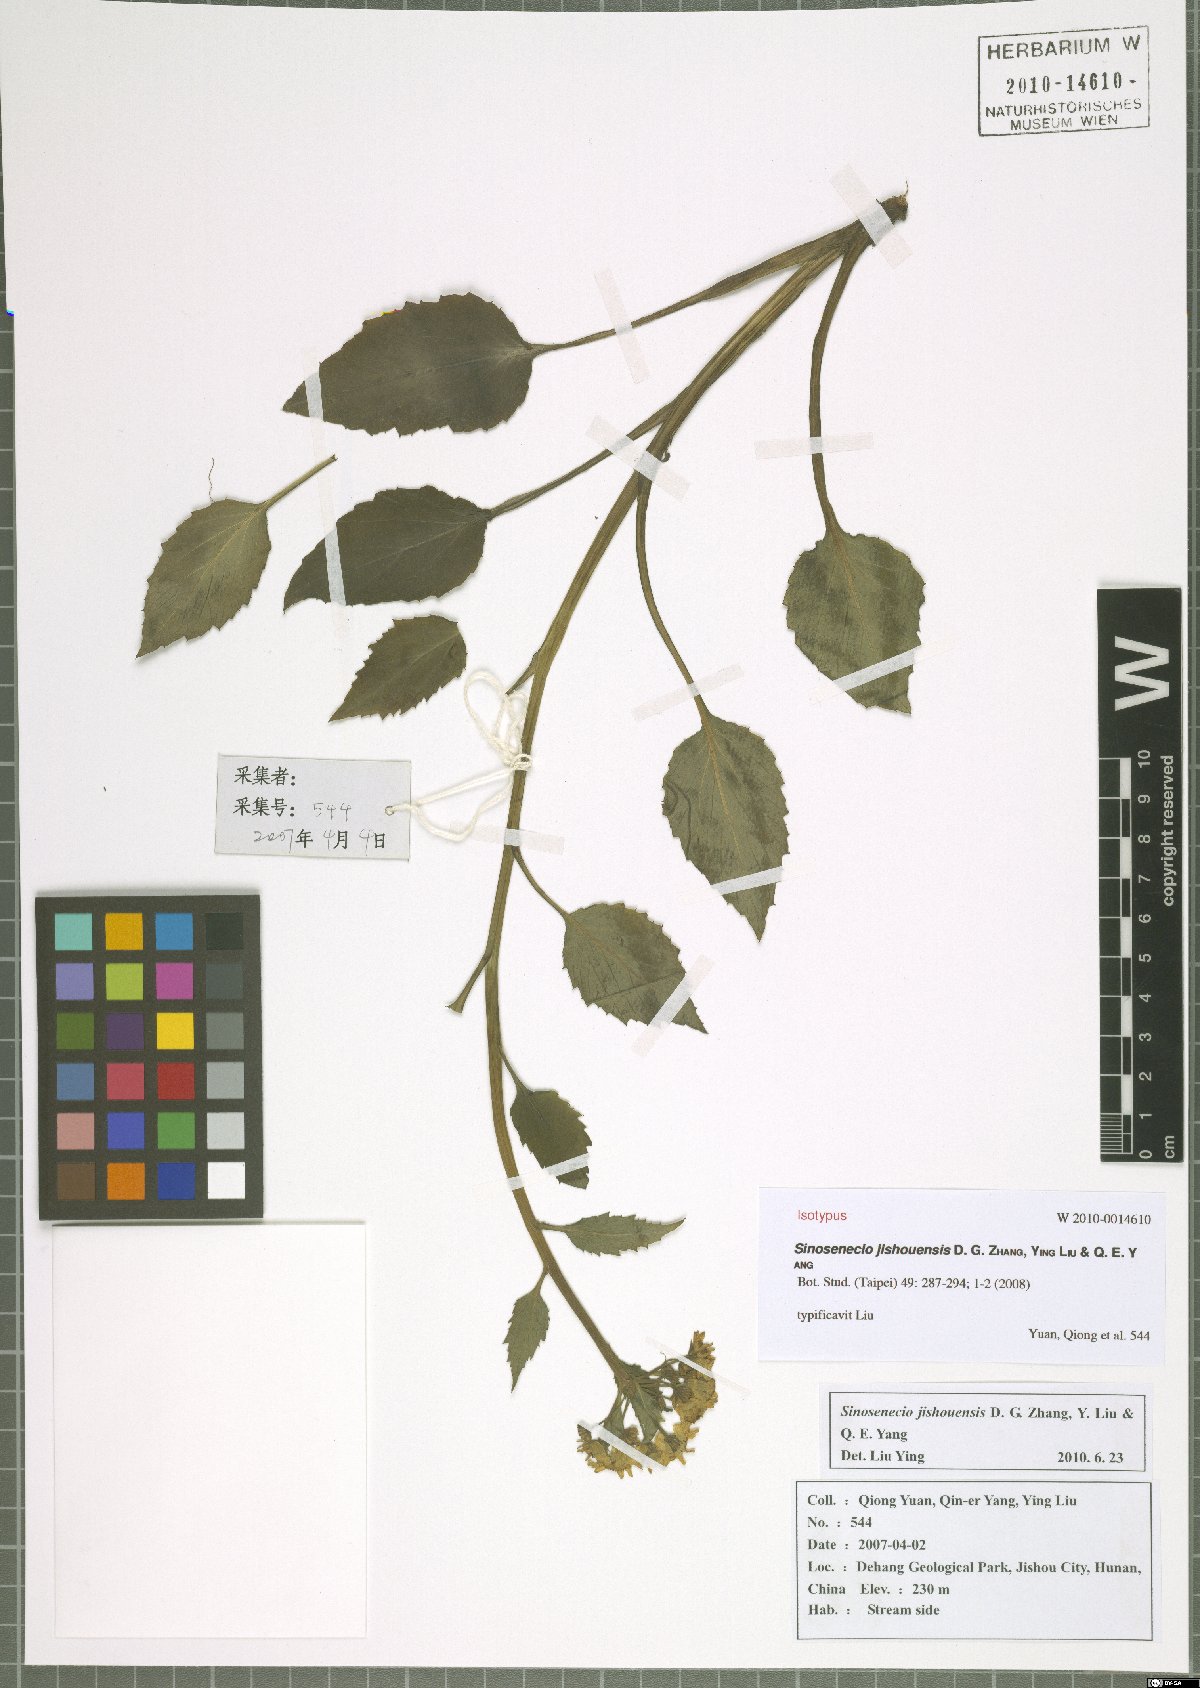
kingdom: Plantae
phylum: Tracheophyta
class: Magnoliopsida
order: Asterales
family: Asteraceae
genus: Sinosenecio
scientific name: Sinosenecio jishouensis
